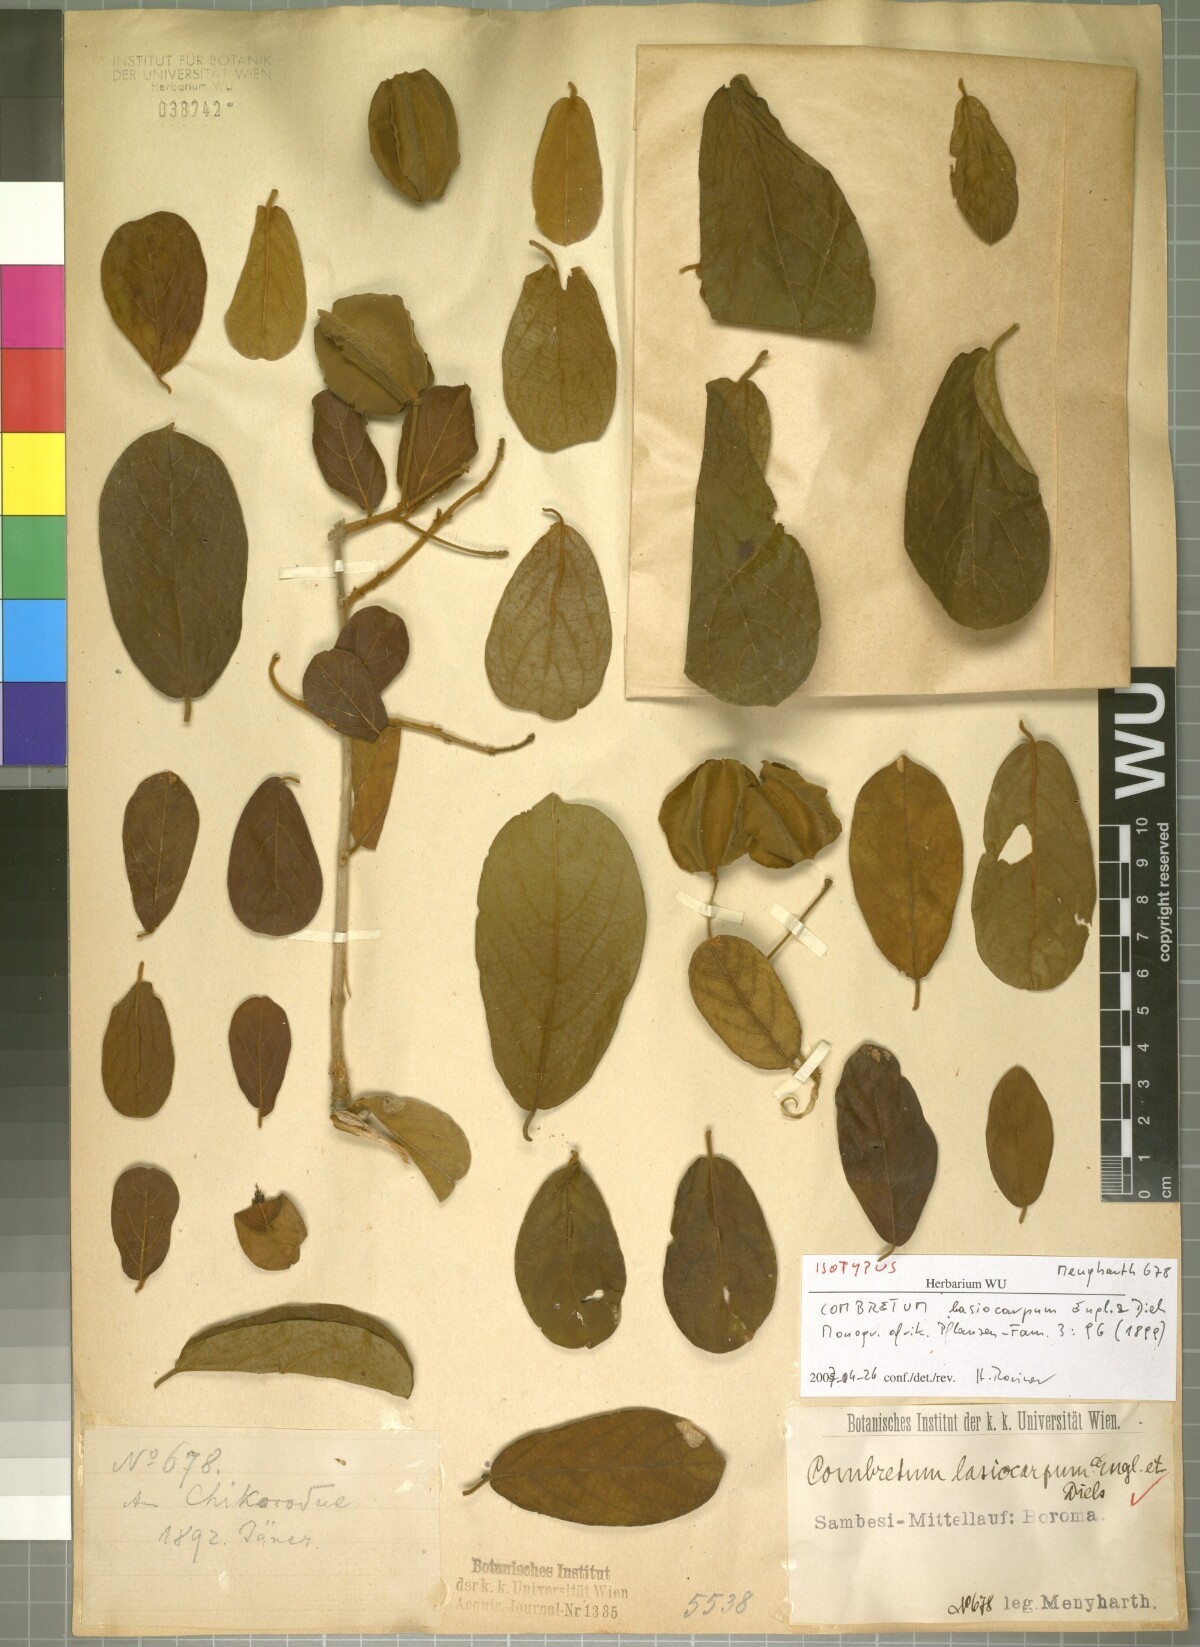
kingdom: Plantae
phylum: Tracheophyta
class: Magnoliopsida
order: Myrtales
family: Combretaceae
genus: Combretum
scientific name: Combretum lasiocarpum
